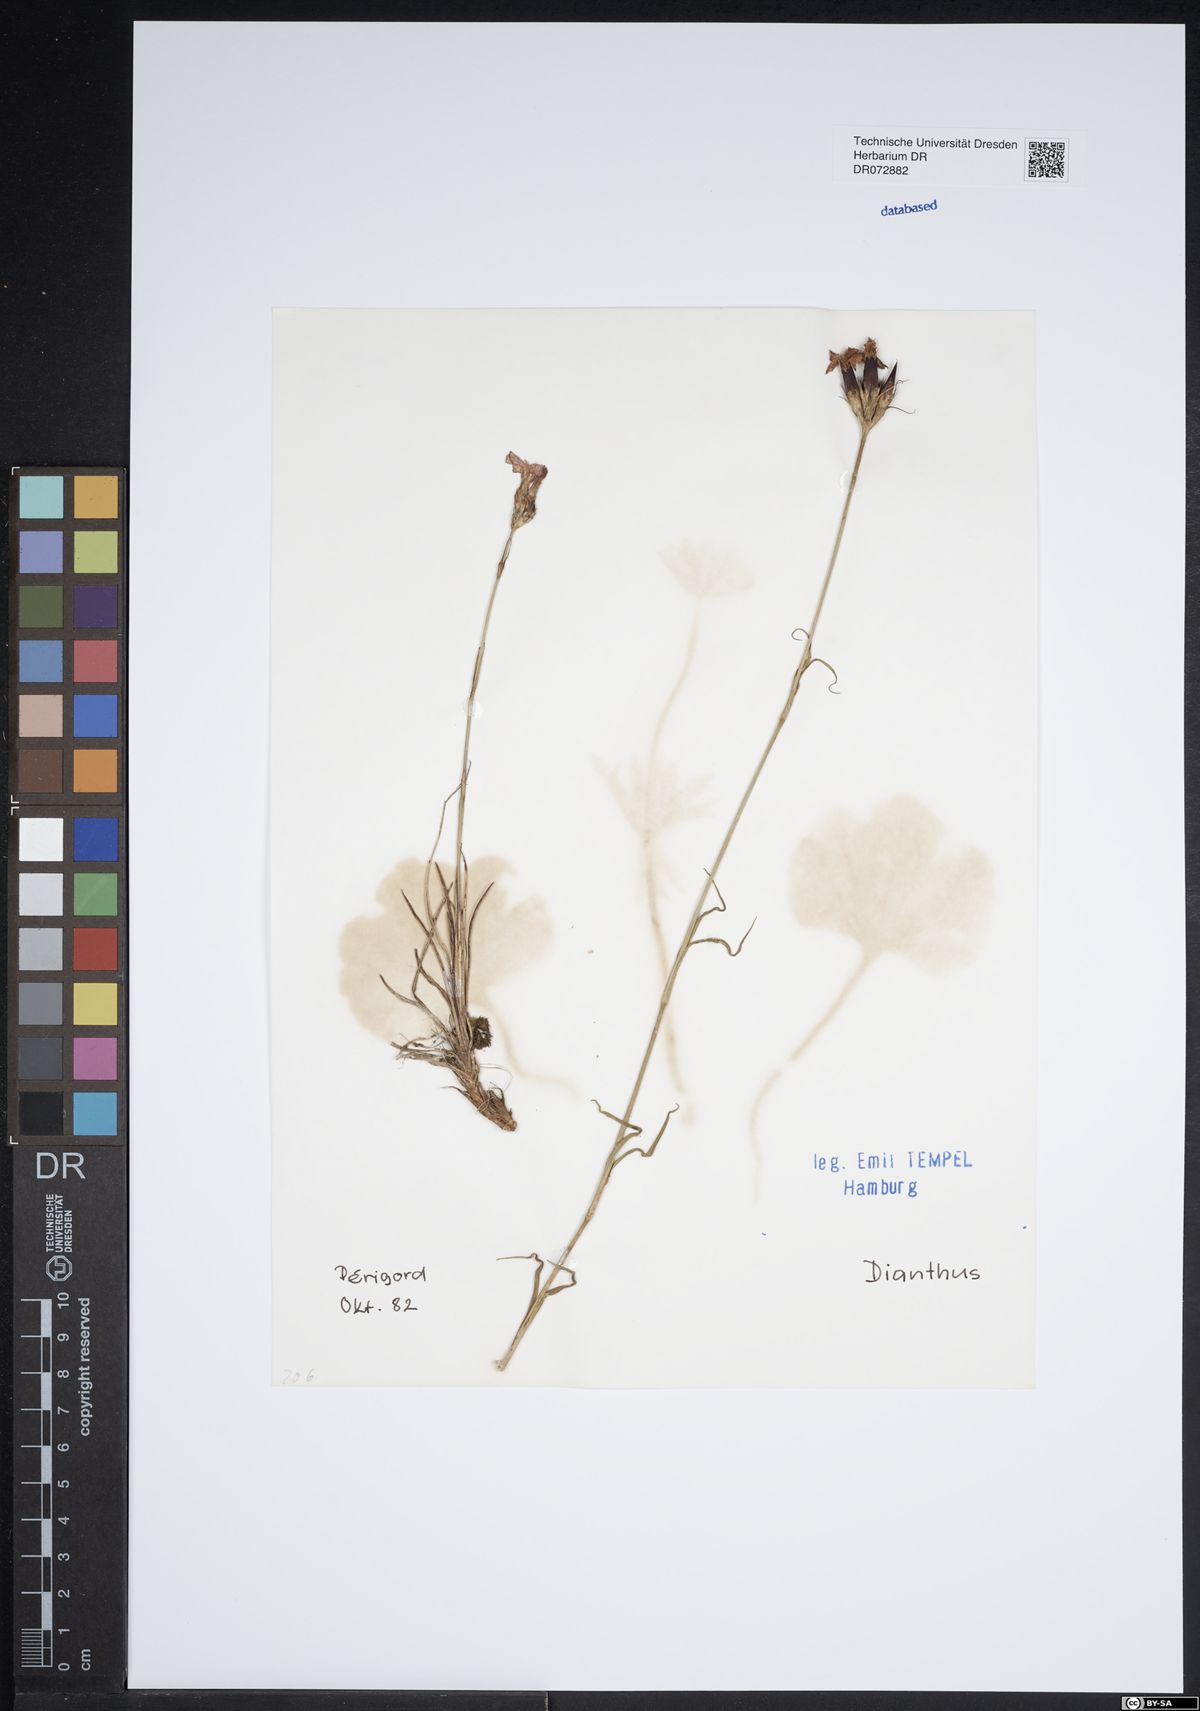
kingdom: Plantae
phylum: Tracheophyta
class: Magnoliopsida
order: Caryophyllales
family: Caryophyllaceae
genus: Dianthus
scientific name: Dianthus
